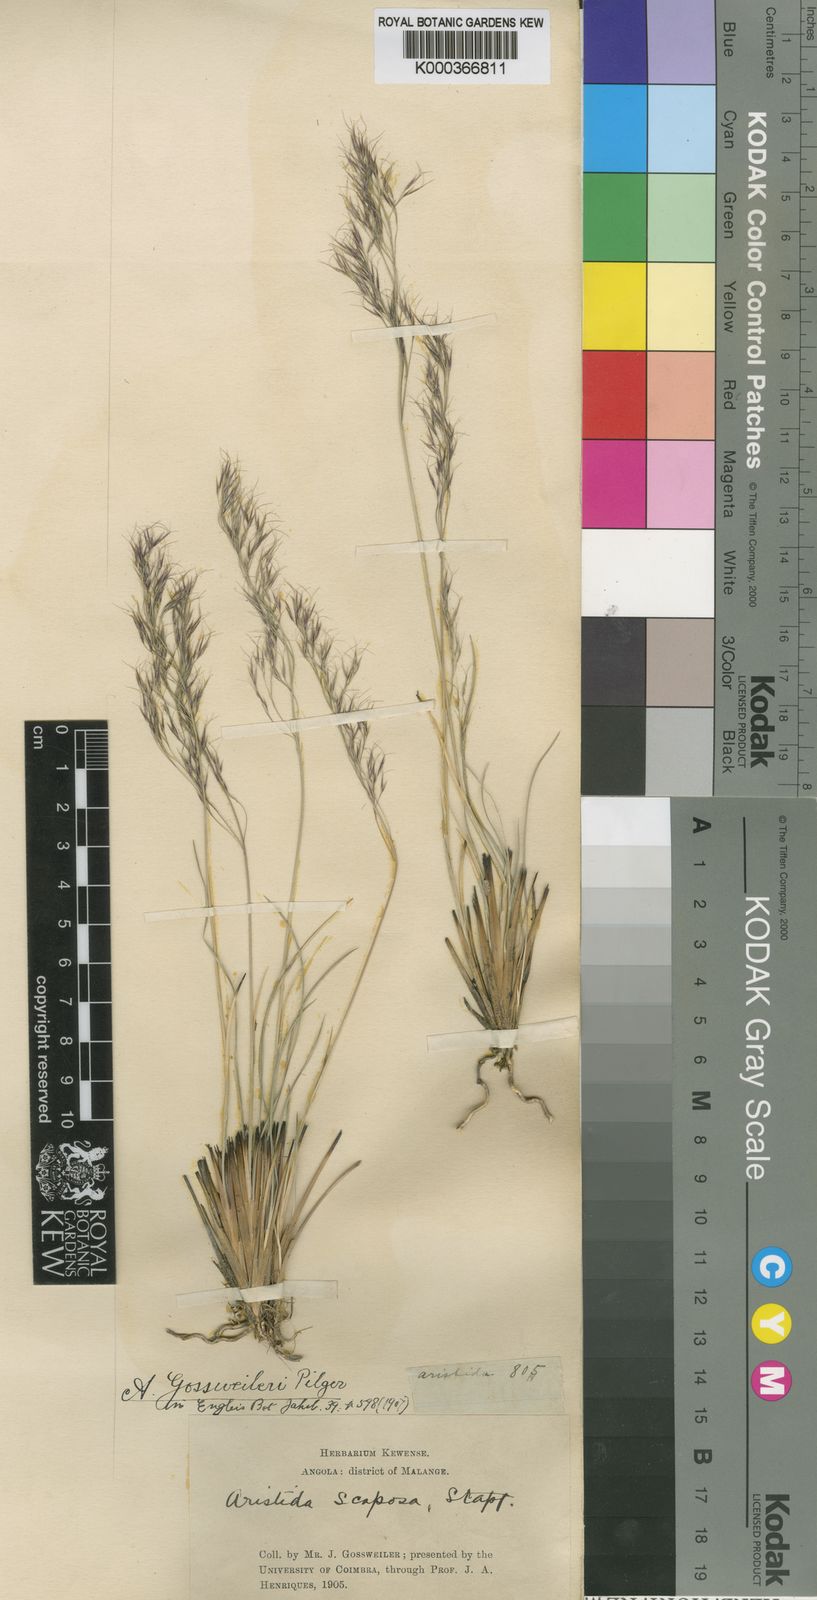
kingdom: Plantae
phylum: Tracheophyta
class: Liliopsida
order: Poales
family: Poaceae
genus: Aristida
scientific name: Aristida recta
